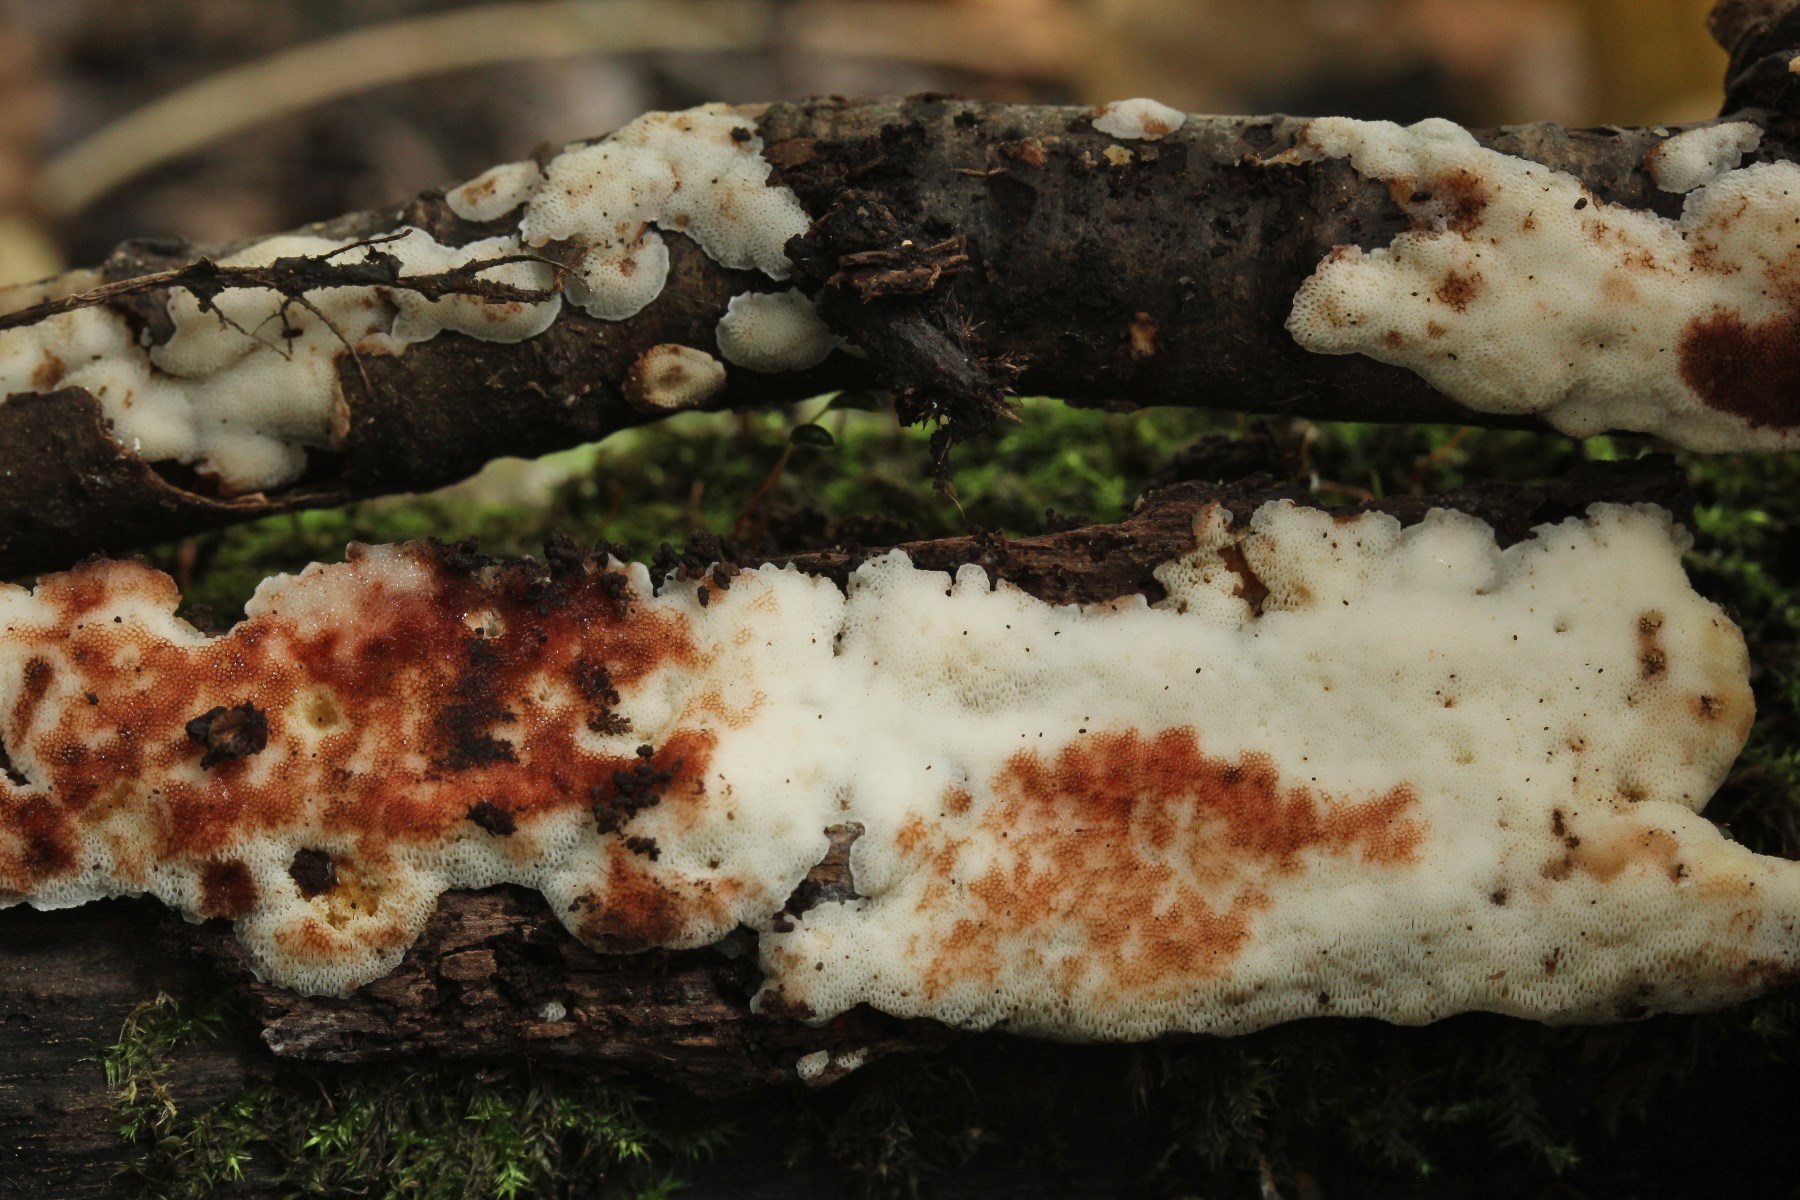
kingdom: Fungi
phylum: Basidiomycota
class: Agaricomycetes
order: Polyporales
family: Meripilaceae
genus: Rigidoporus
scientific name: Rigidoporus sanguinolentus
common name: blod-skorpeporesvamp
